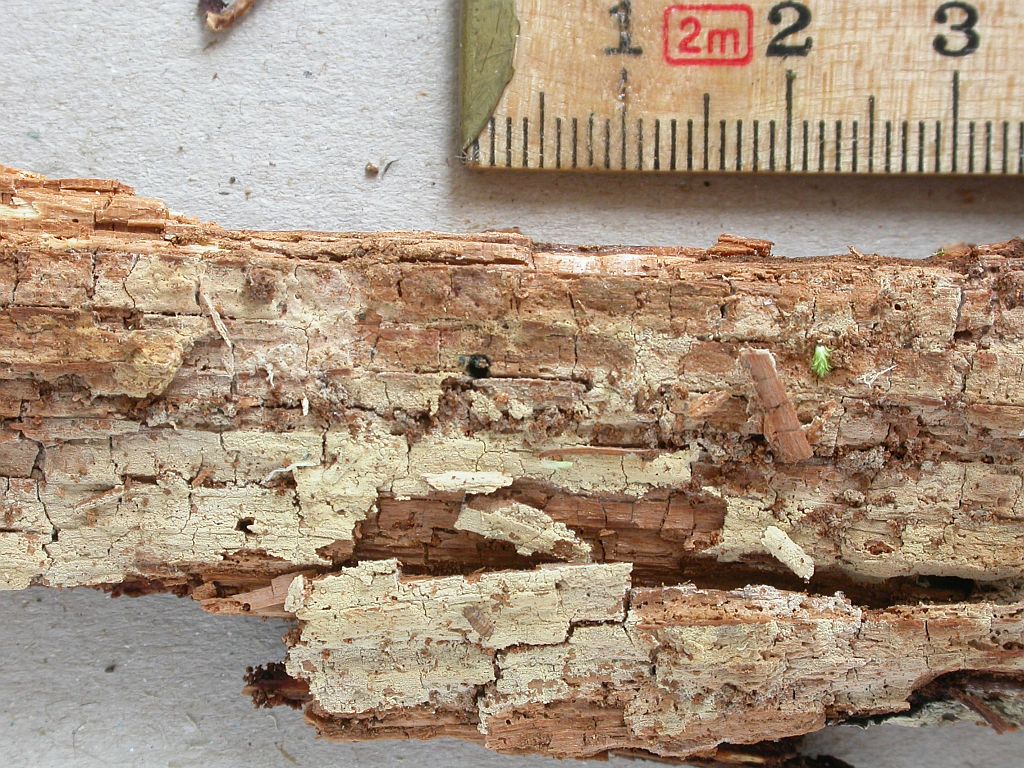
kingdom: Fungi
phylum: Basidiomycota
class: Agaricomycetes
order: Cantharellales
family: Botryobasidiaceae
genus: Botryobasidium
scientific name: Botryobasidium subcoronatum
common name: almindelig spindhinde
